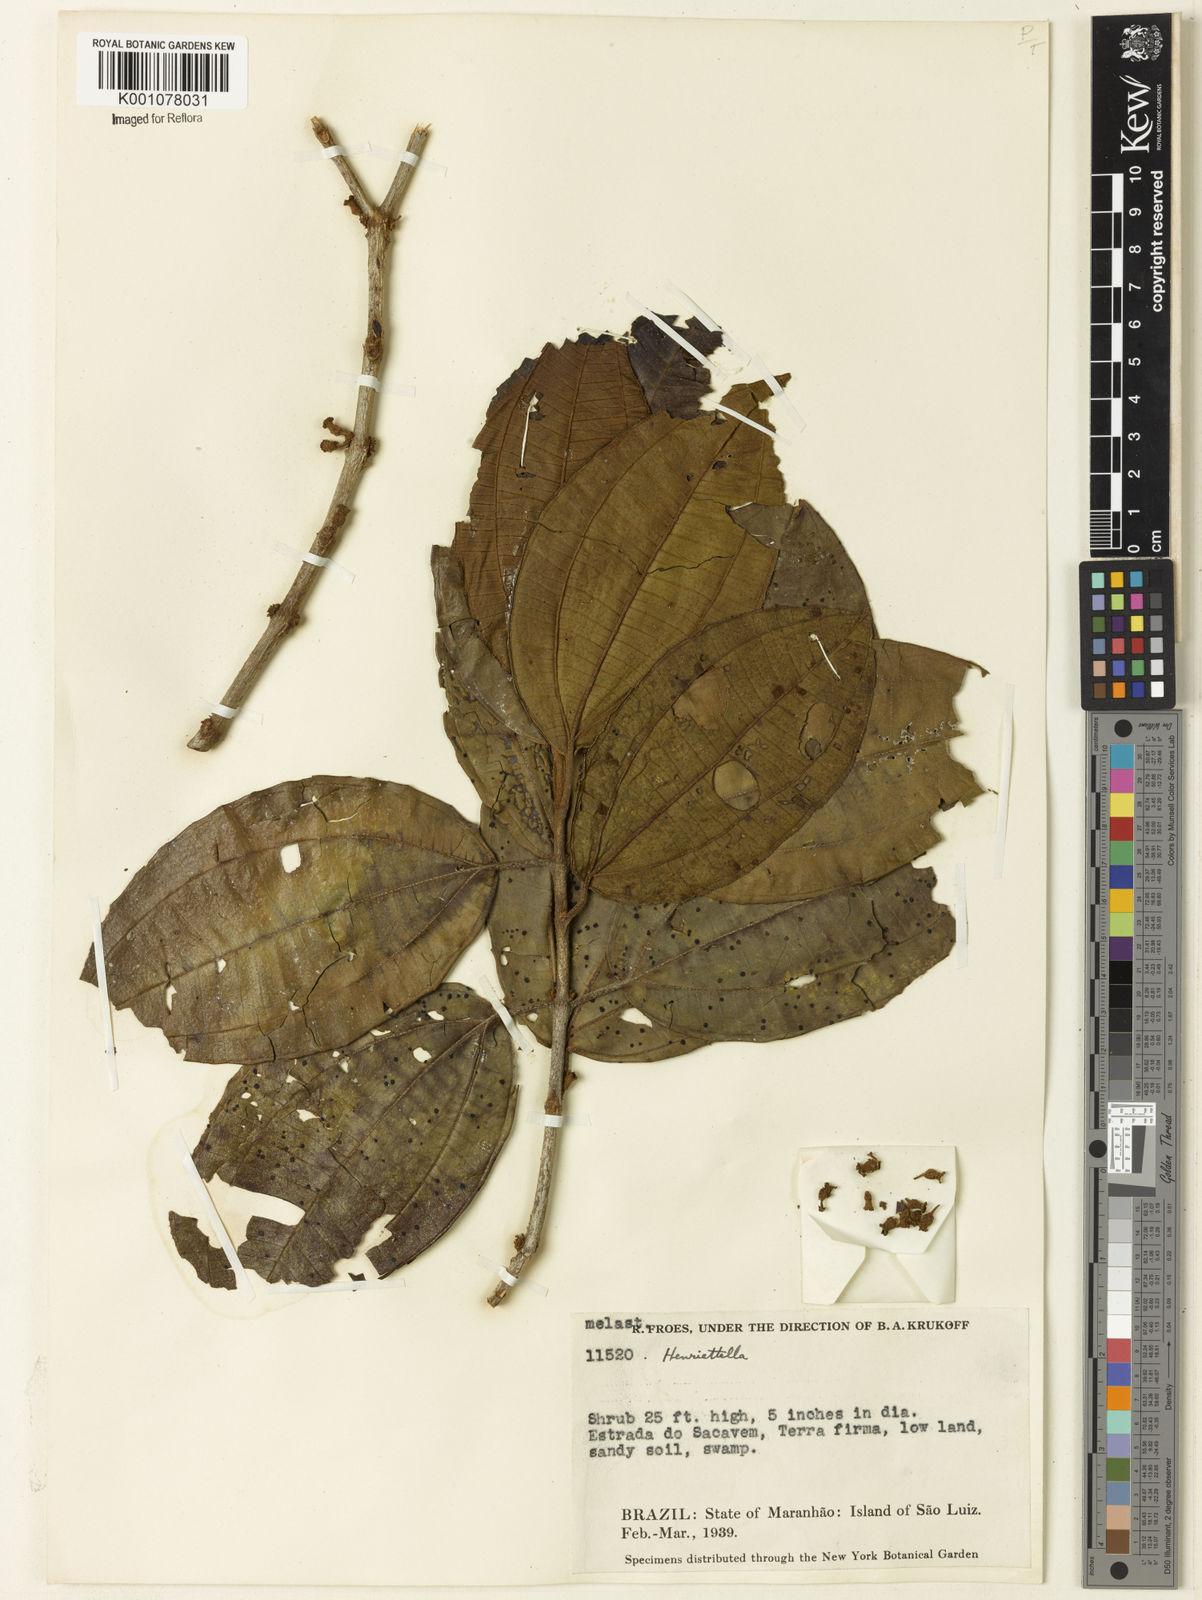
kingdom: Plantae
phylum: Tracheophyta
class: Magnoliopsida
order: Myrtales
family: Melastomataceae
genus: Henriettea
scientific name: Henriettea
